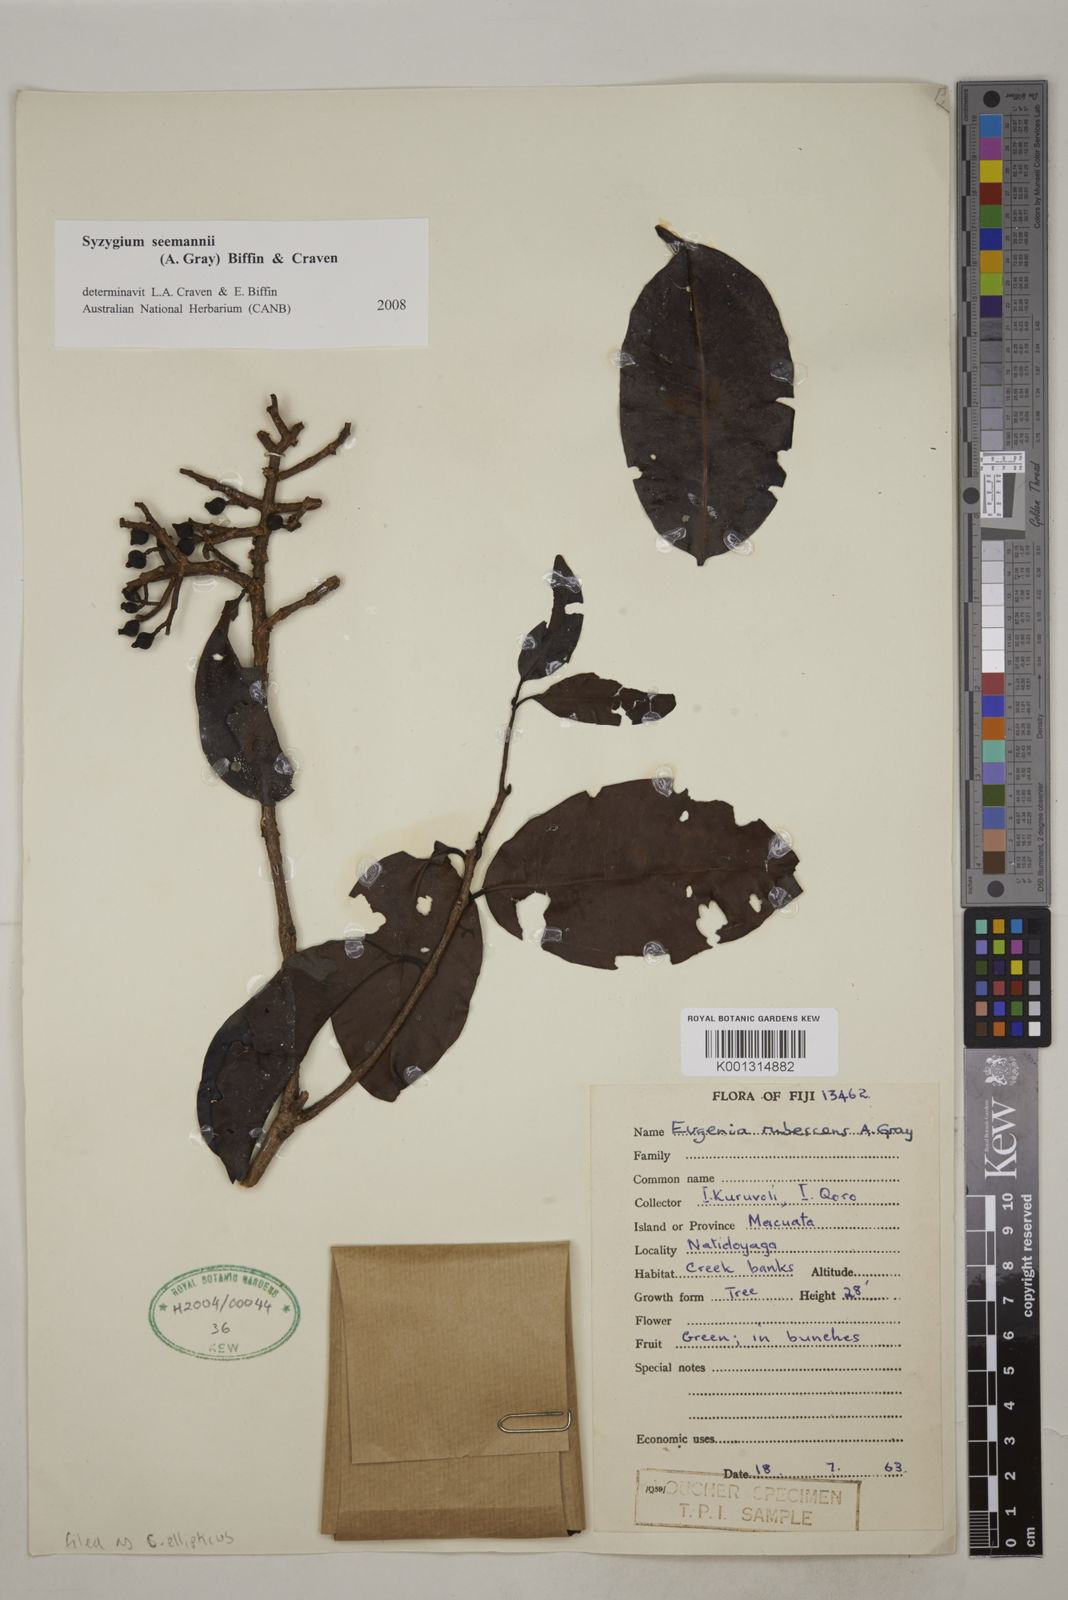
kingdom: Plantae
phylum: Tracheophyta
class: Magnoliopsida
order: Myrtales
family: Myrtaceae
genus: Syzygium
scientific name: Syzygium seemannii
